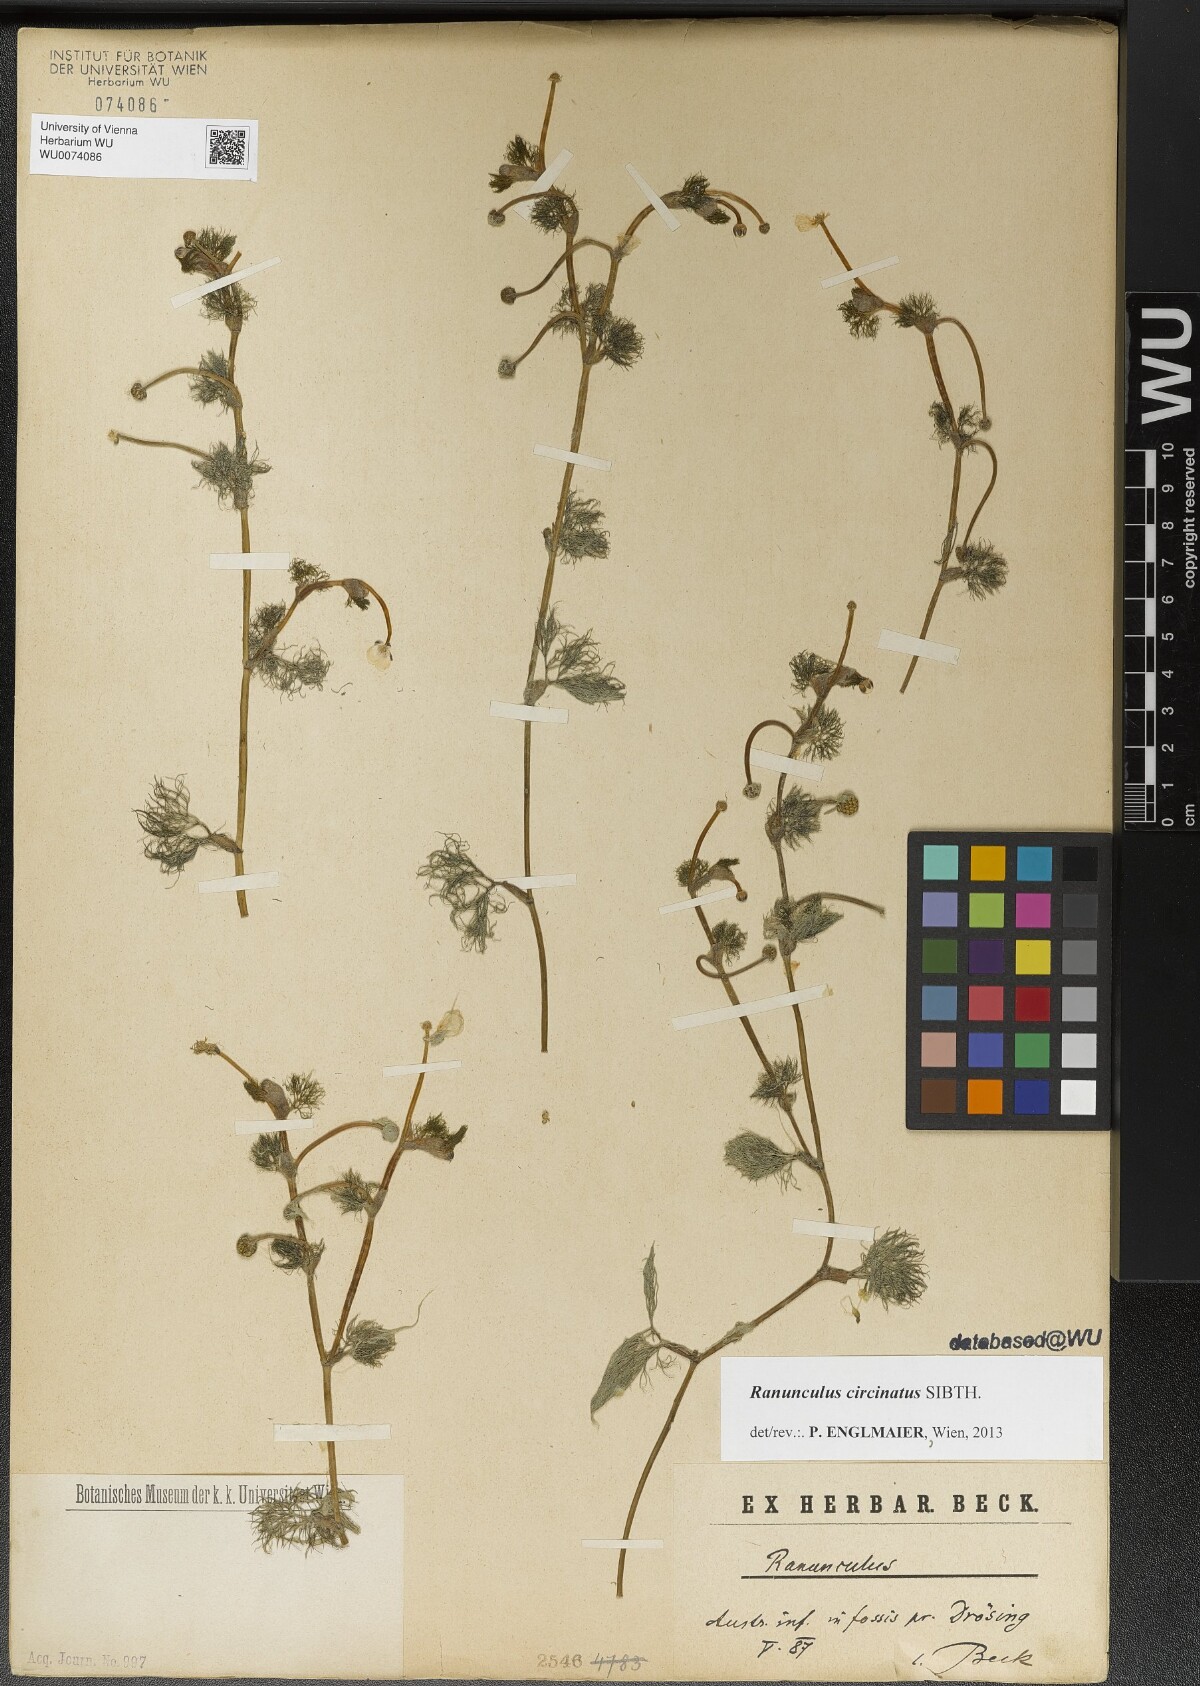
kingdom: Plantae
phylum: Tracheophyta
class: Magnoliopsida
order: Ranunculales
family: Ranunculaceae
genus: Ranunculus
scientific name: Ranunculus circinatus
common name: Fan-leaved water-crowfoot
